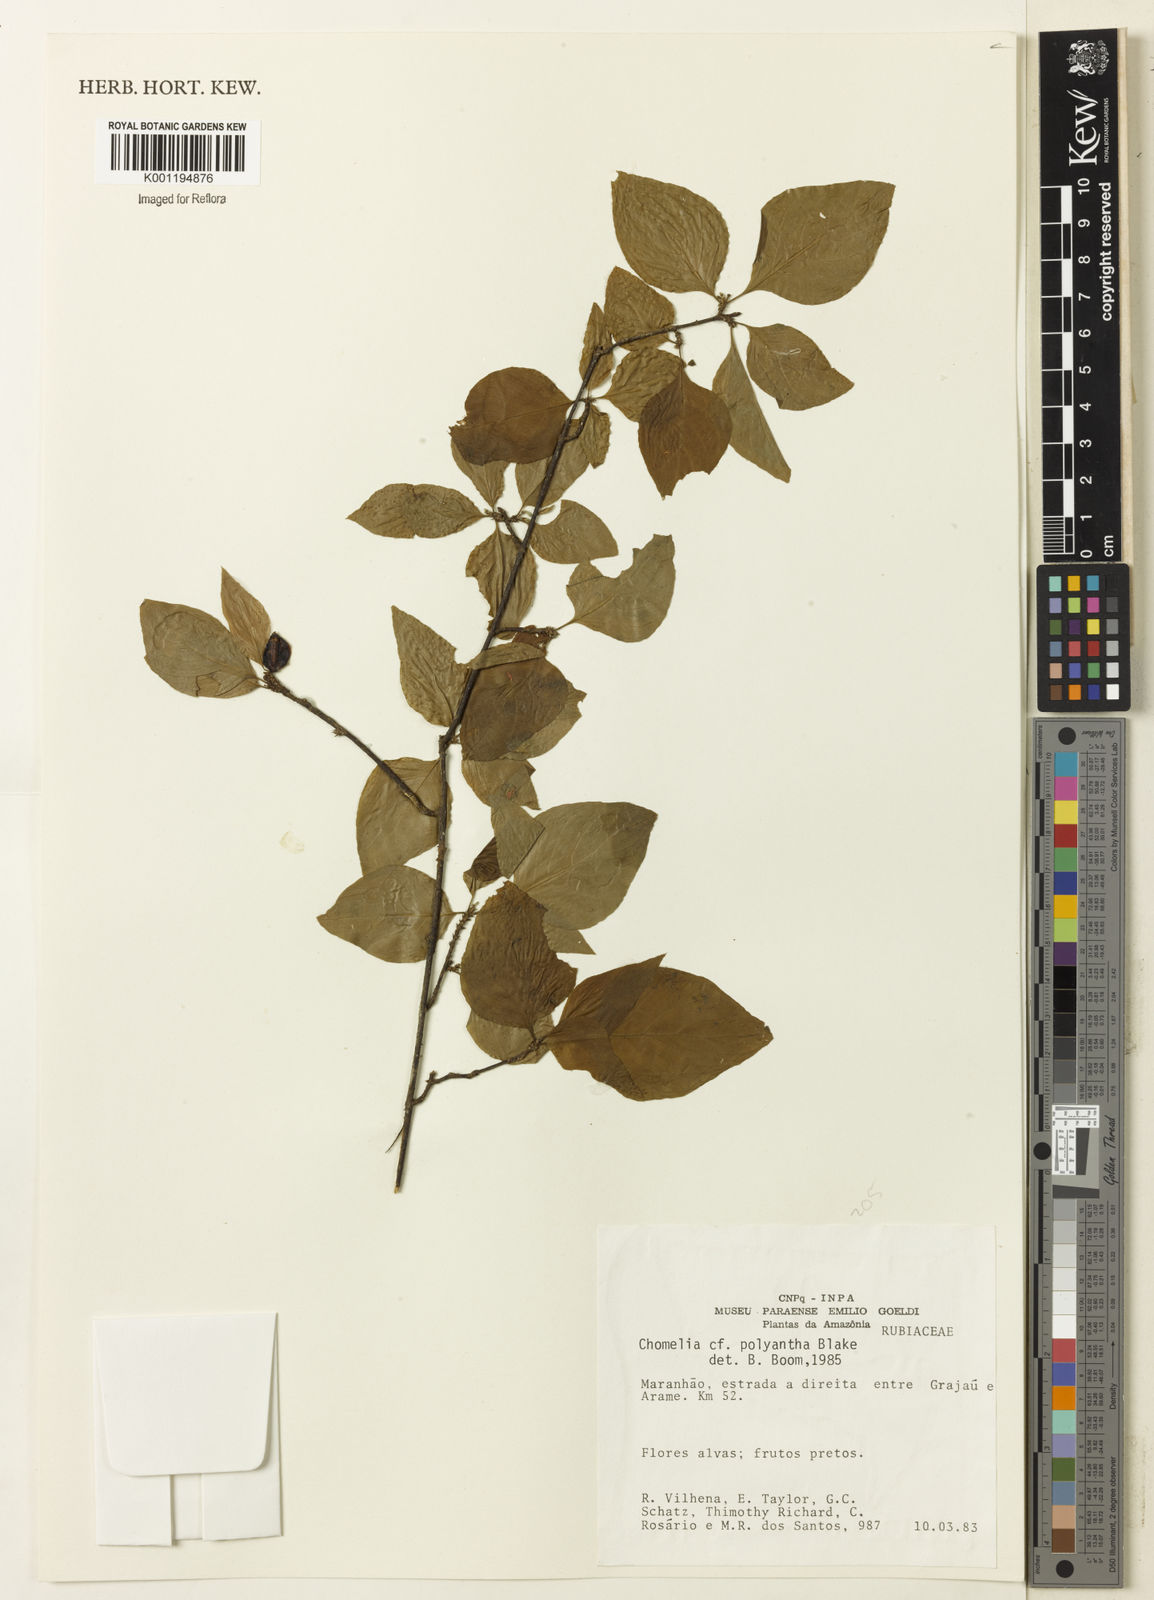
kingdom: Plantae
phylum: Tracheophyta
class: Magnoliopsida
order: Gentianales
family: Rubiaceae
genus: Chomelia
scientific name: Chomelia polyantha
